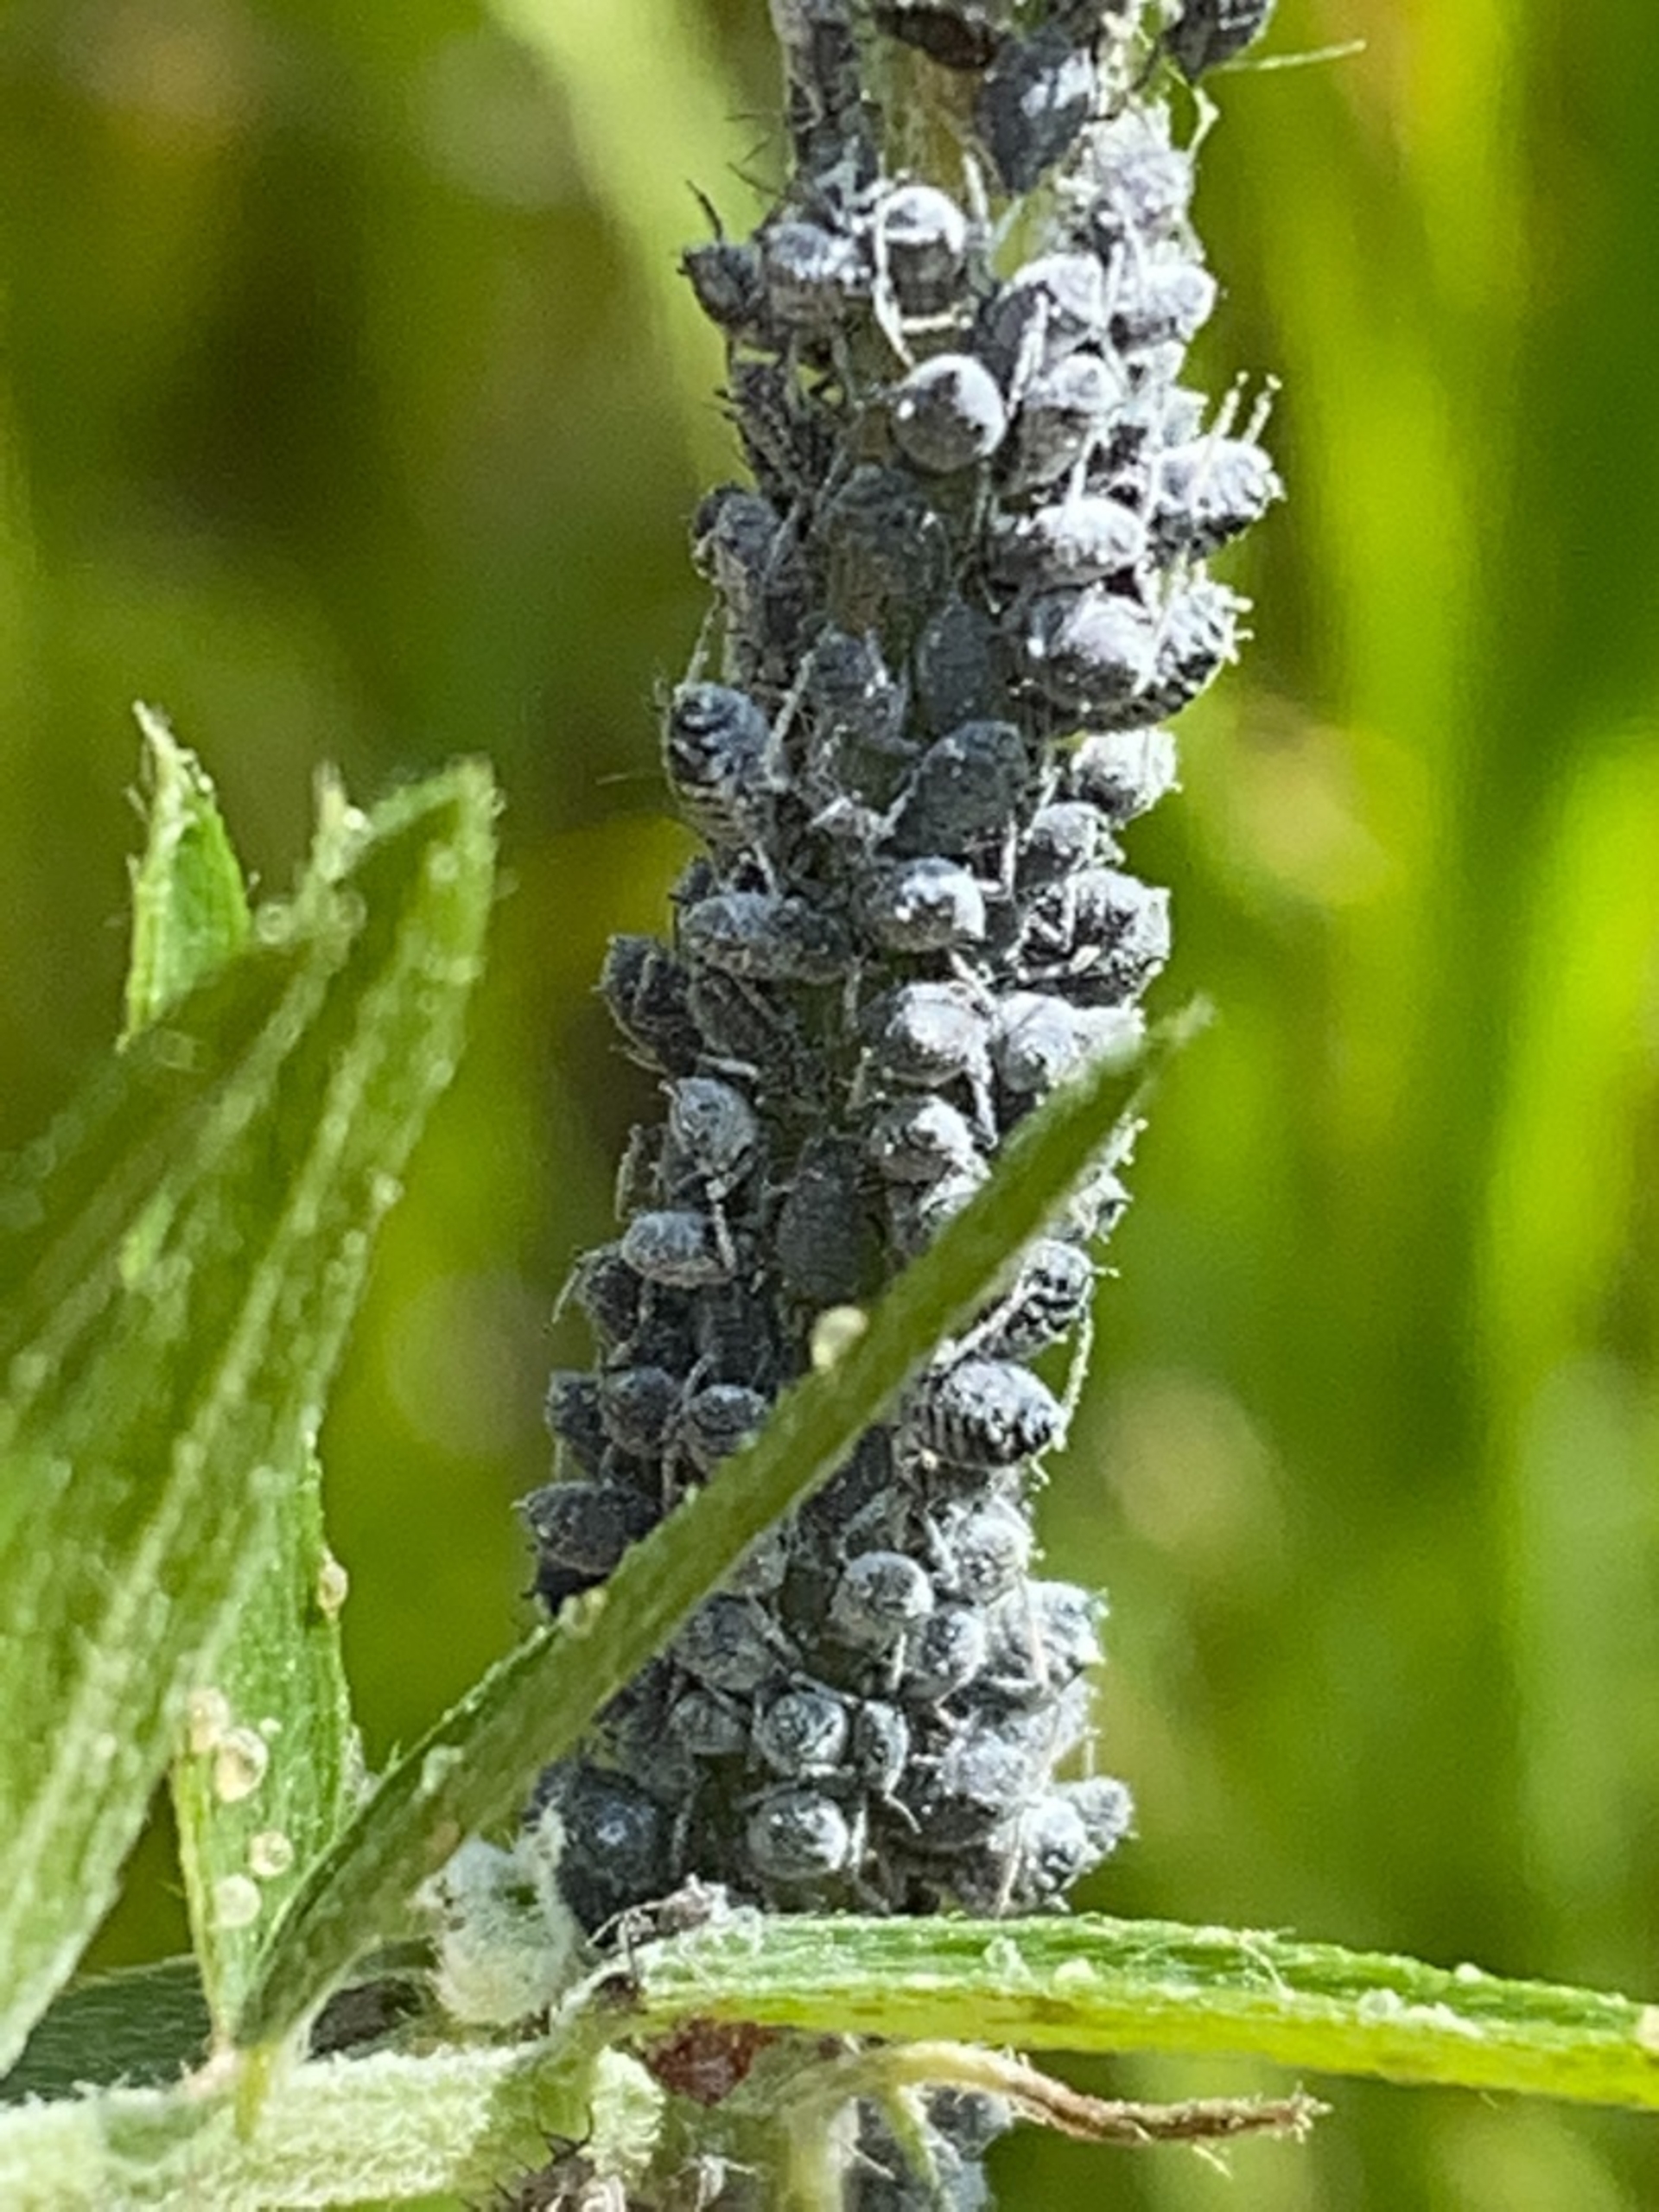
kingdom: Animalia
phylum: Arthropoda
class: Insecta
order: Hemiptera
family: Aphididae
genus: Aphis
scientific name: Aphis craccae
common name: Musevikkebladlus
